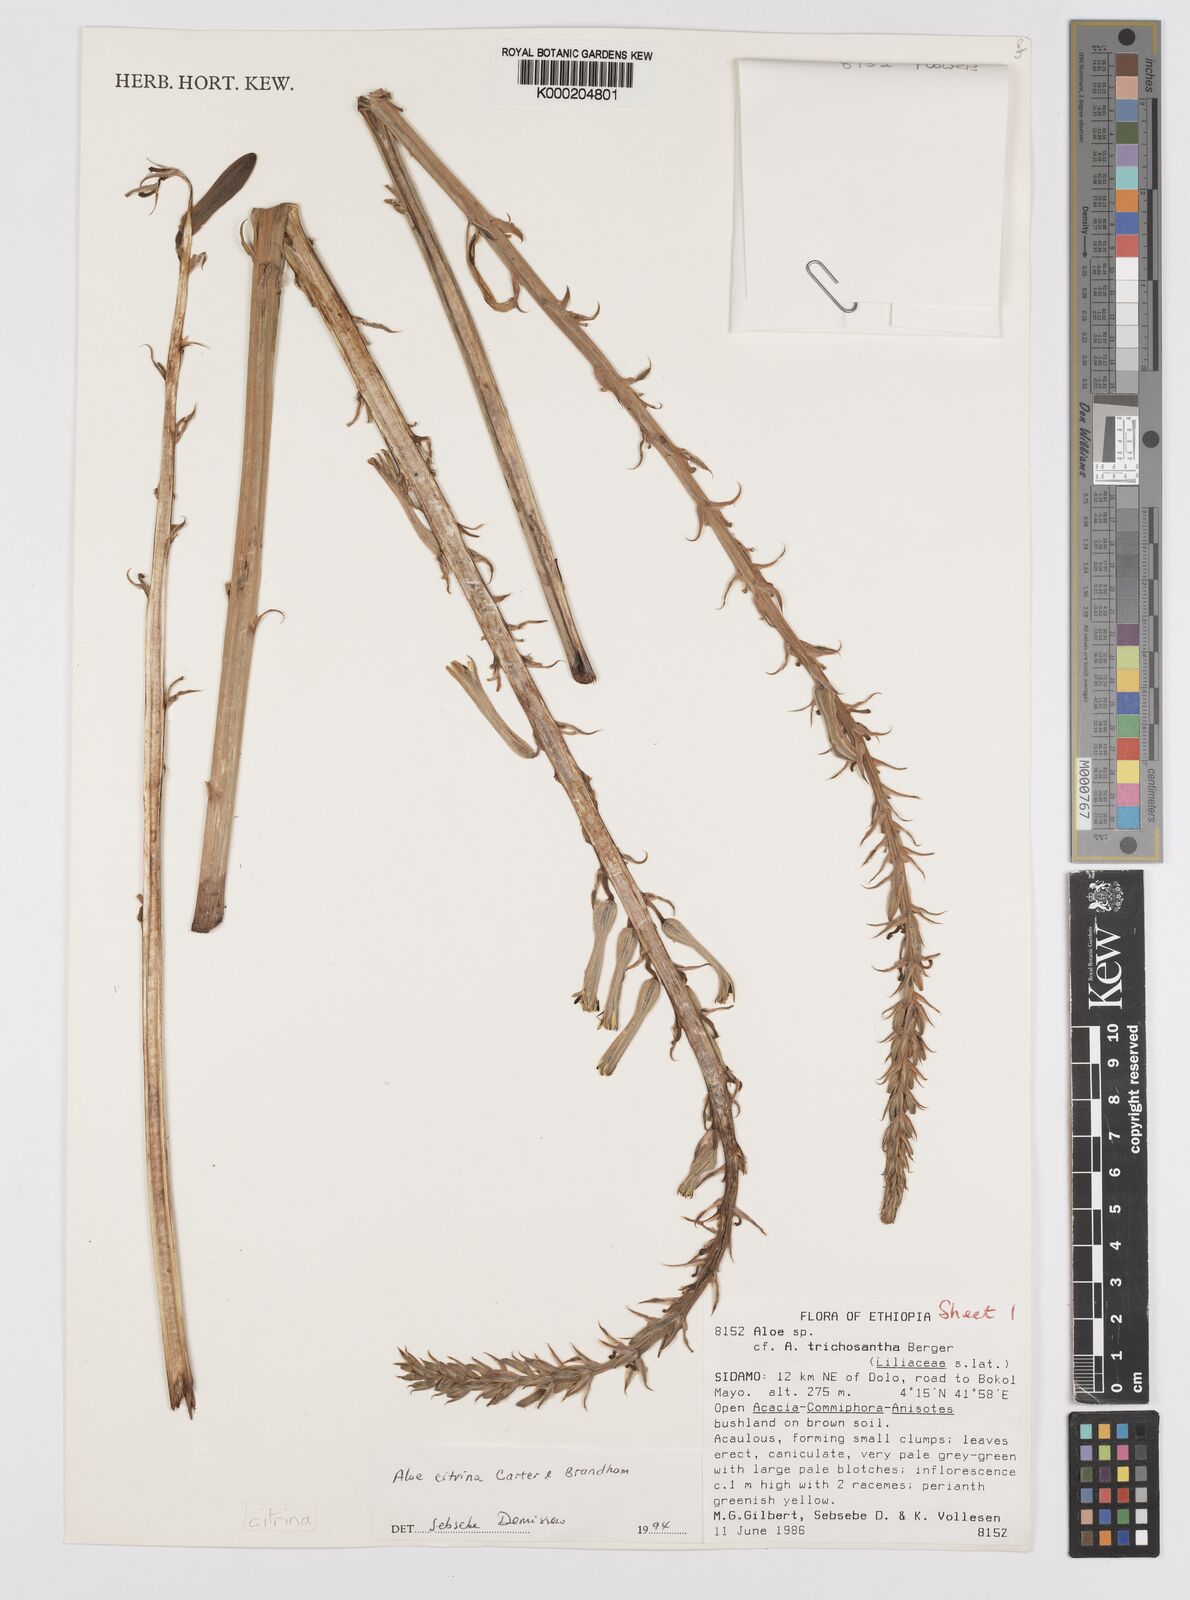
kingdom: Plantae
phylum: Tracheophyta
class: Liliopsida
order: Asparagales
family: Asphodelaceae
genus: Aloe
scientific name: Aloe citrina
